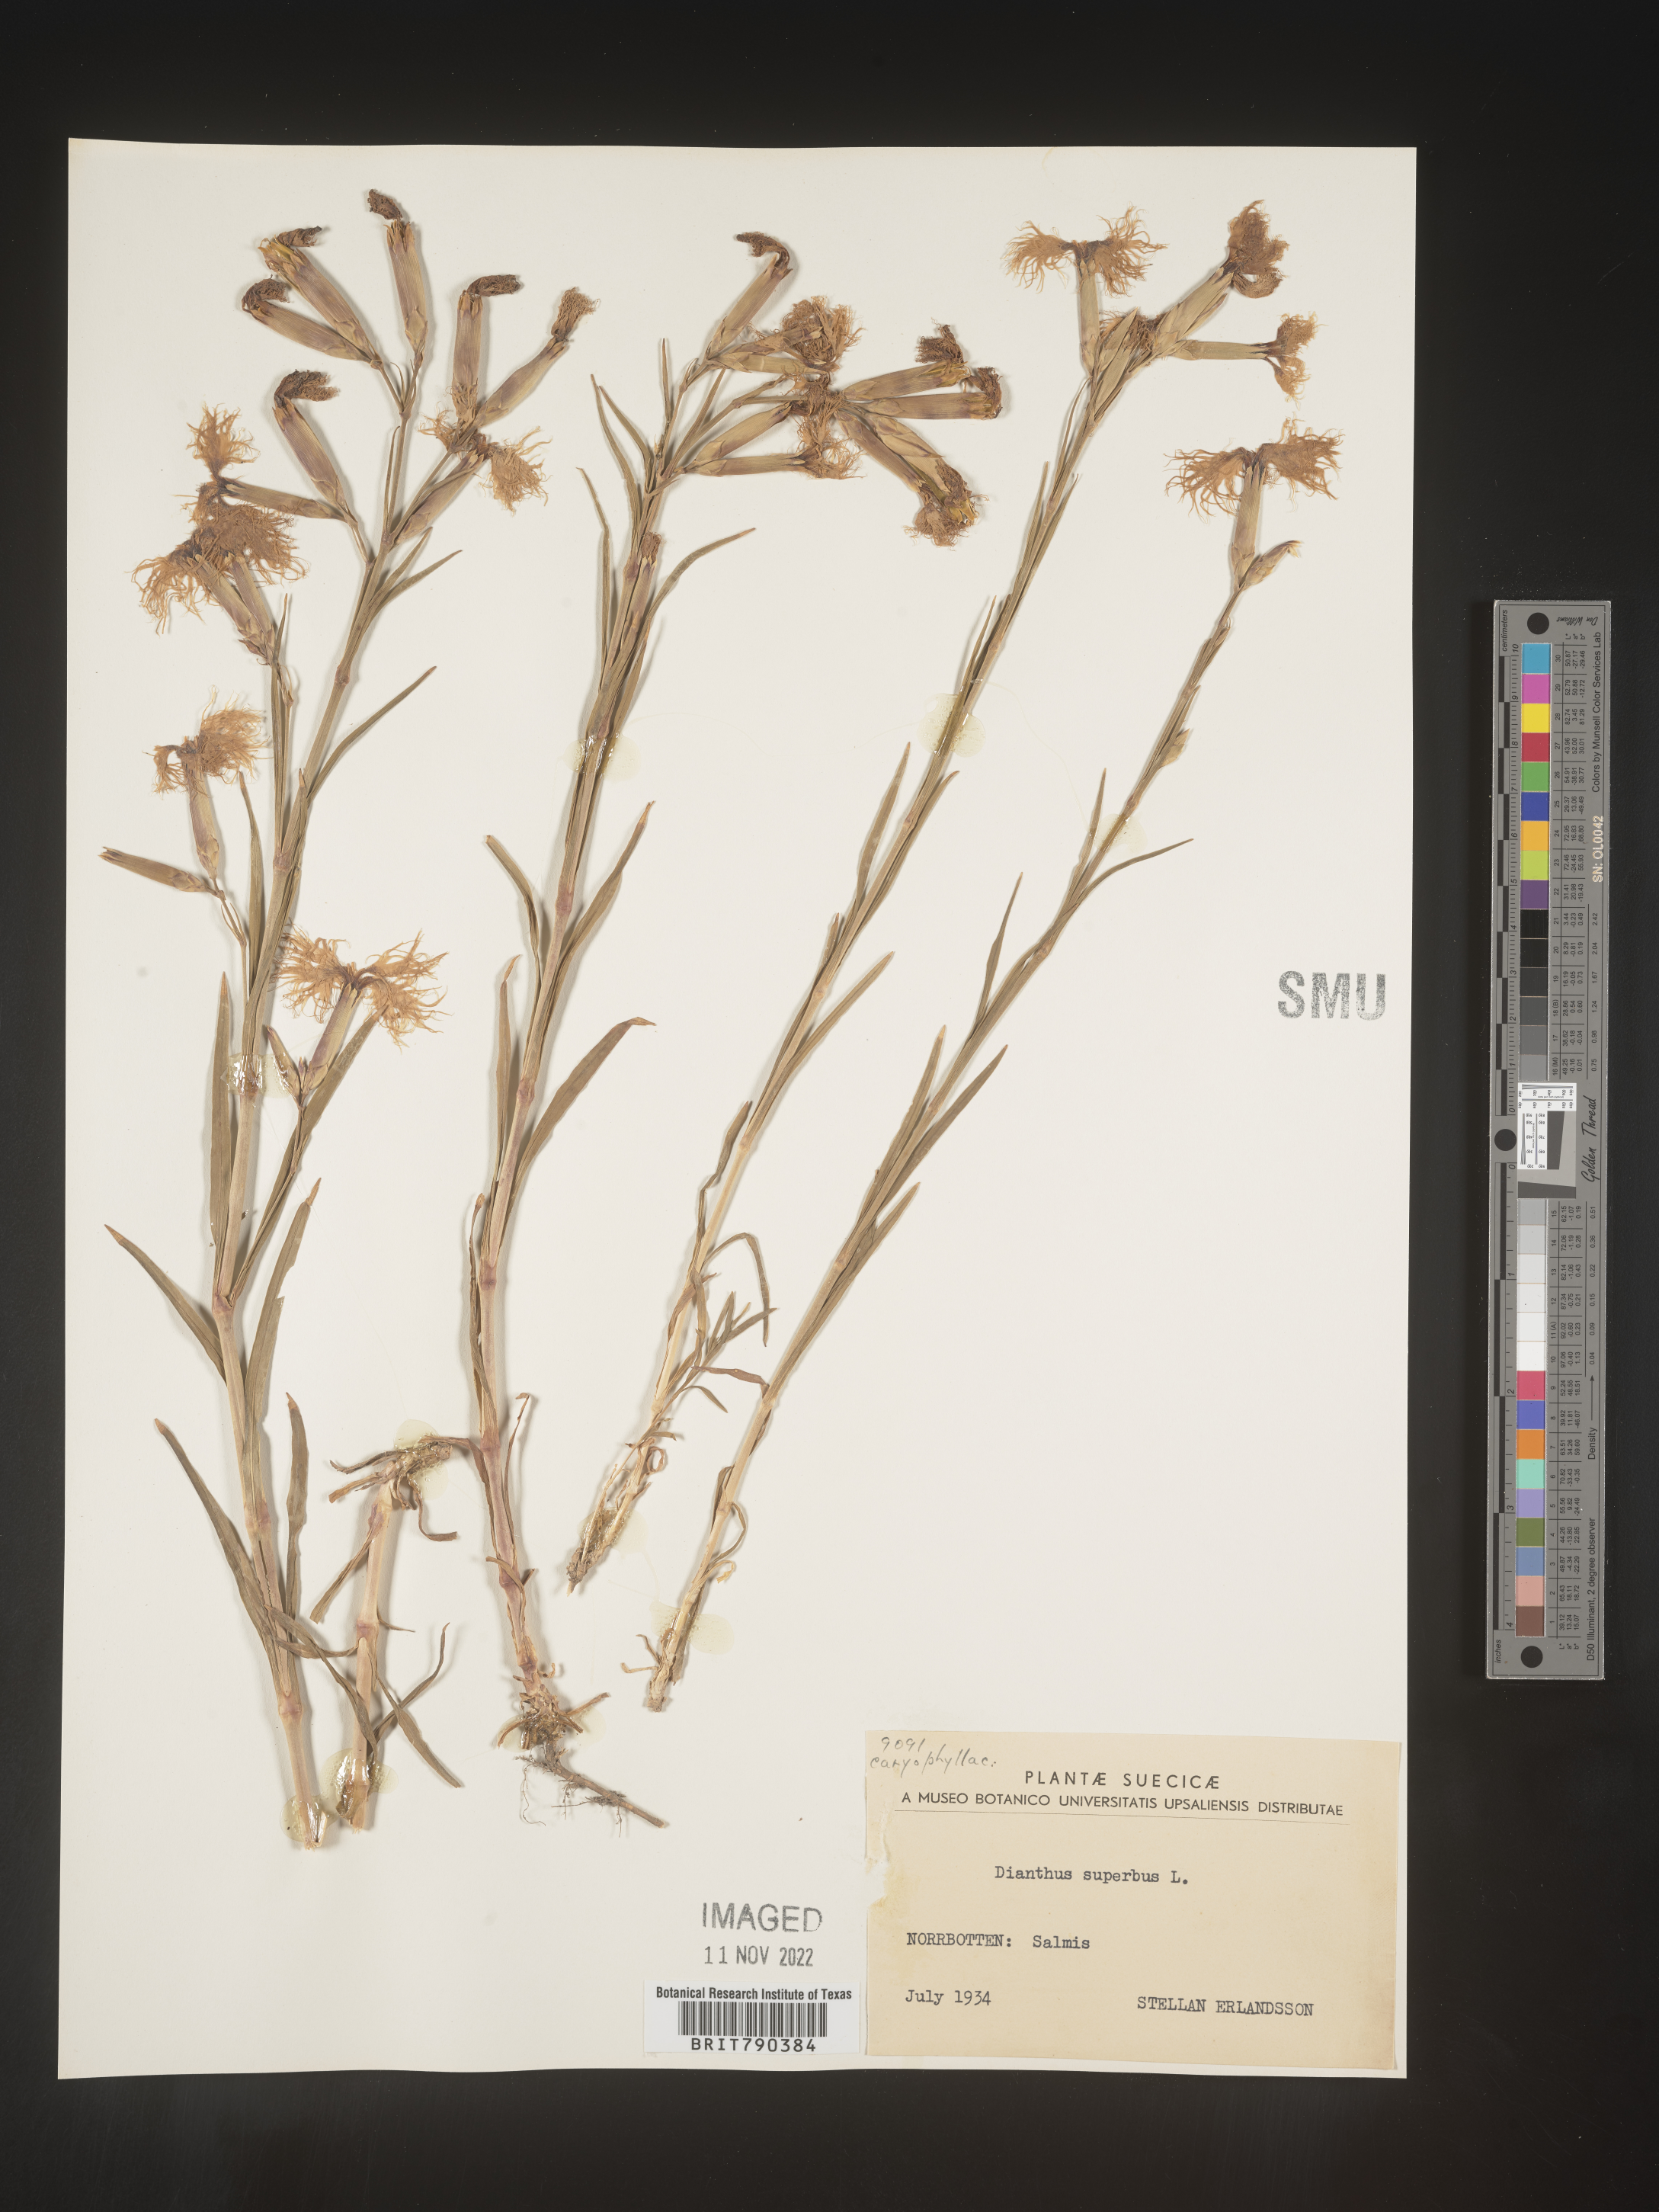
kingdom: Plantae
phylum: Tracheophyta
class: Magnoliopsida
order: Caryophyllales
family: Caryophyllaceae
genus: Dianthus
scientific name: Dianthus superbus
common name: Fringed pink
